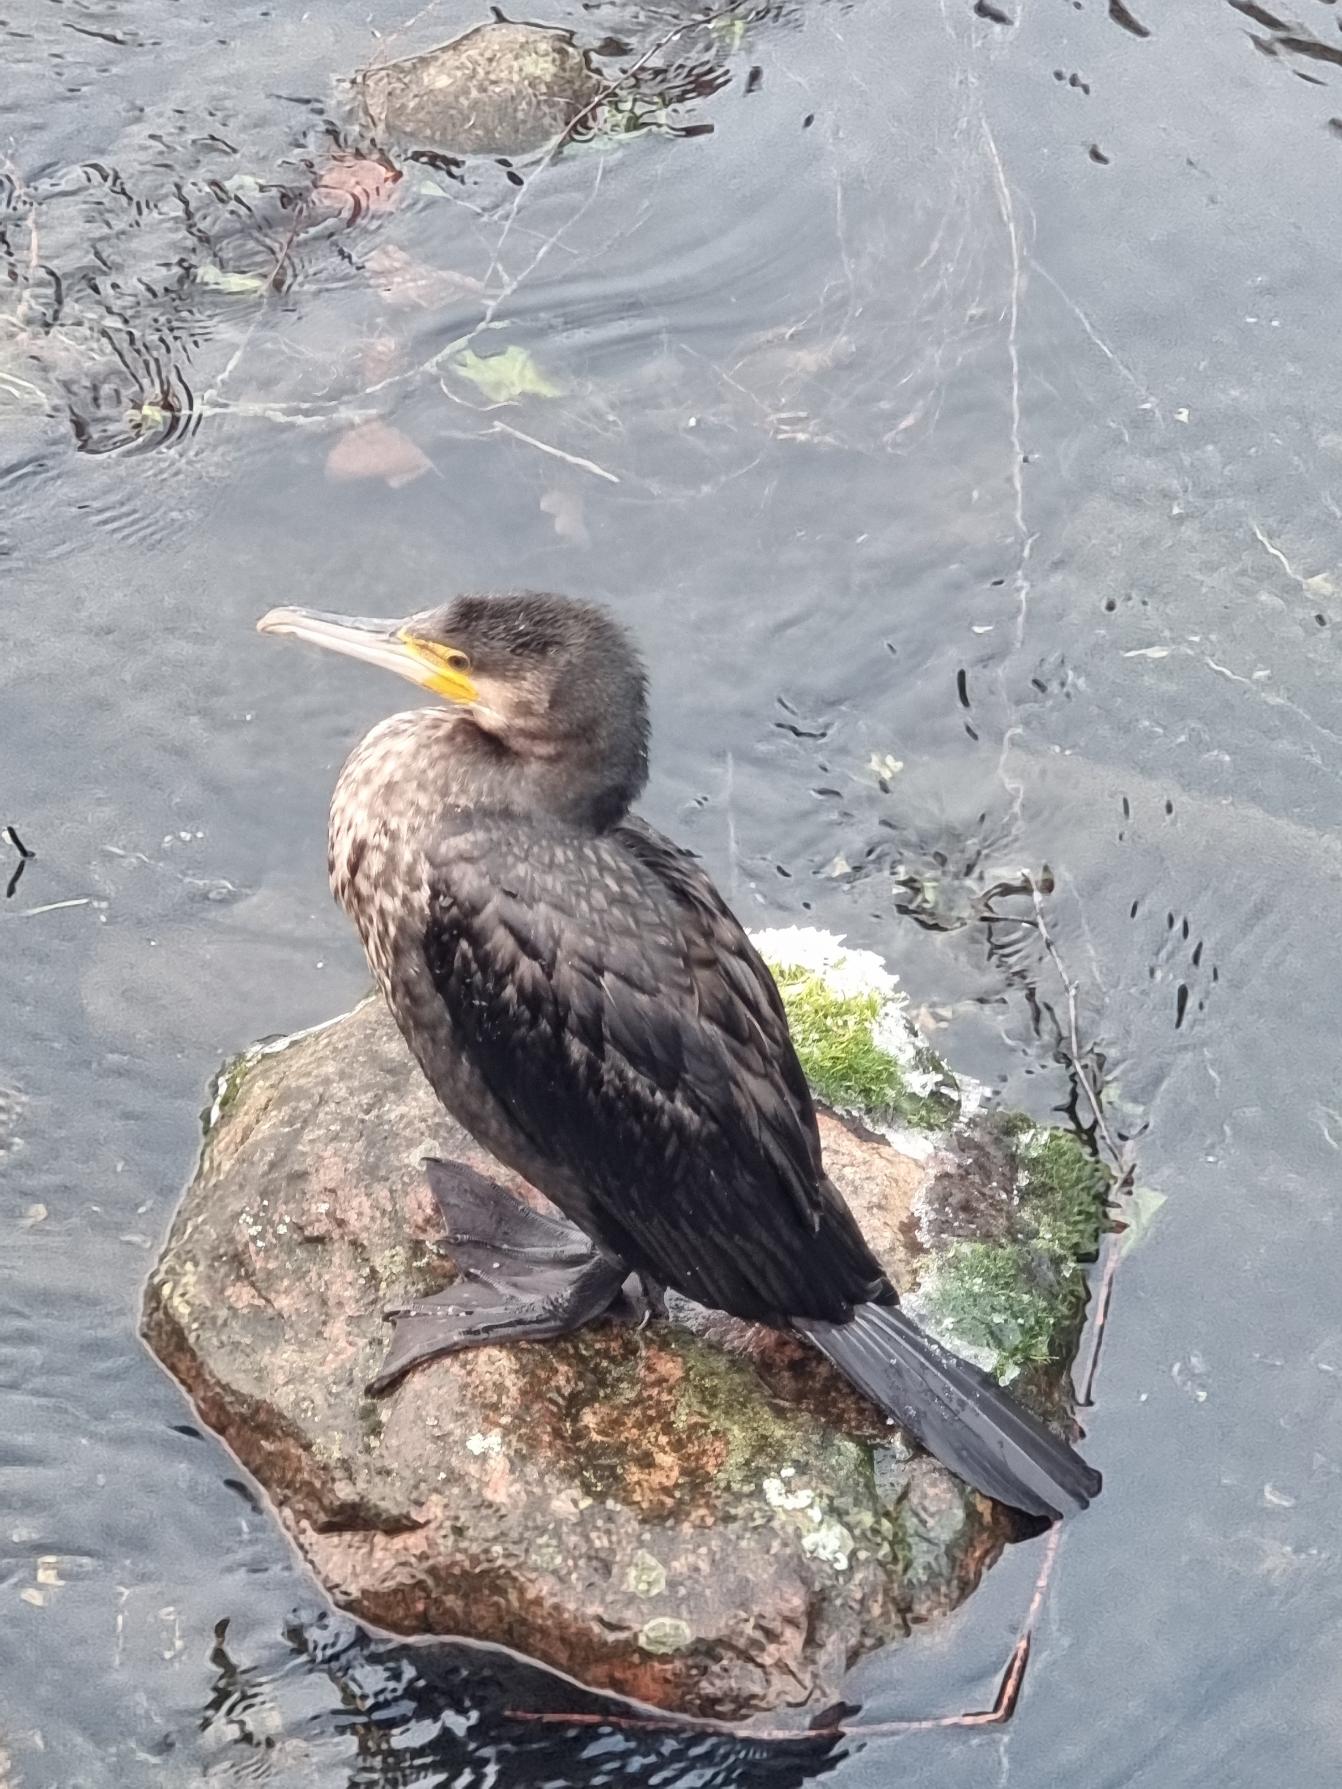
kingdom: Animalia
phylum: Chordata
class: Aves
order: Suliformes
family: Phalacrocoracidae
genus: Phalacrocorax
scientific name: Phalacrocorax carbo
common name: Skarv
